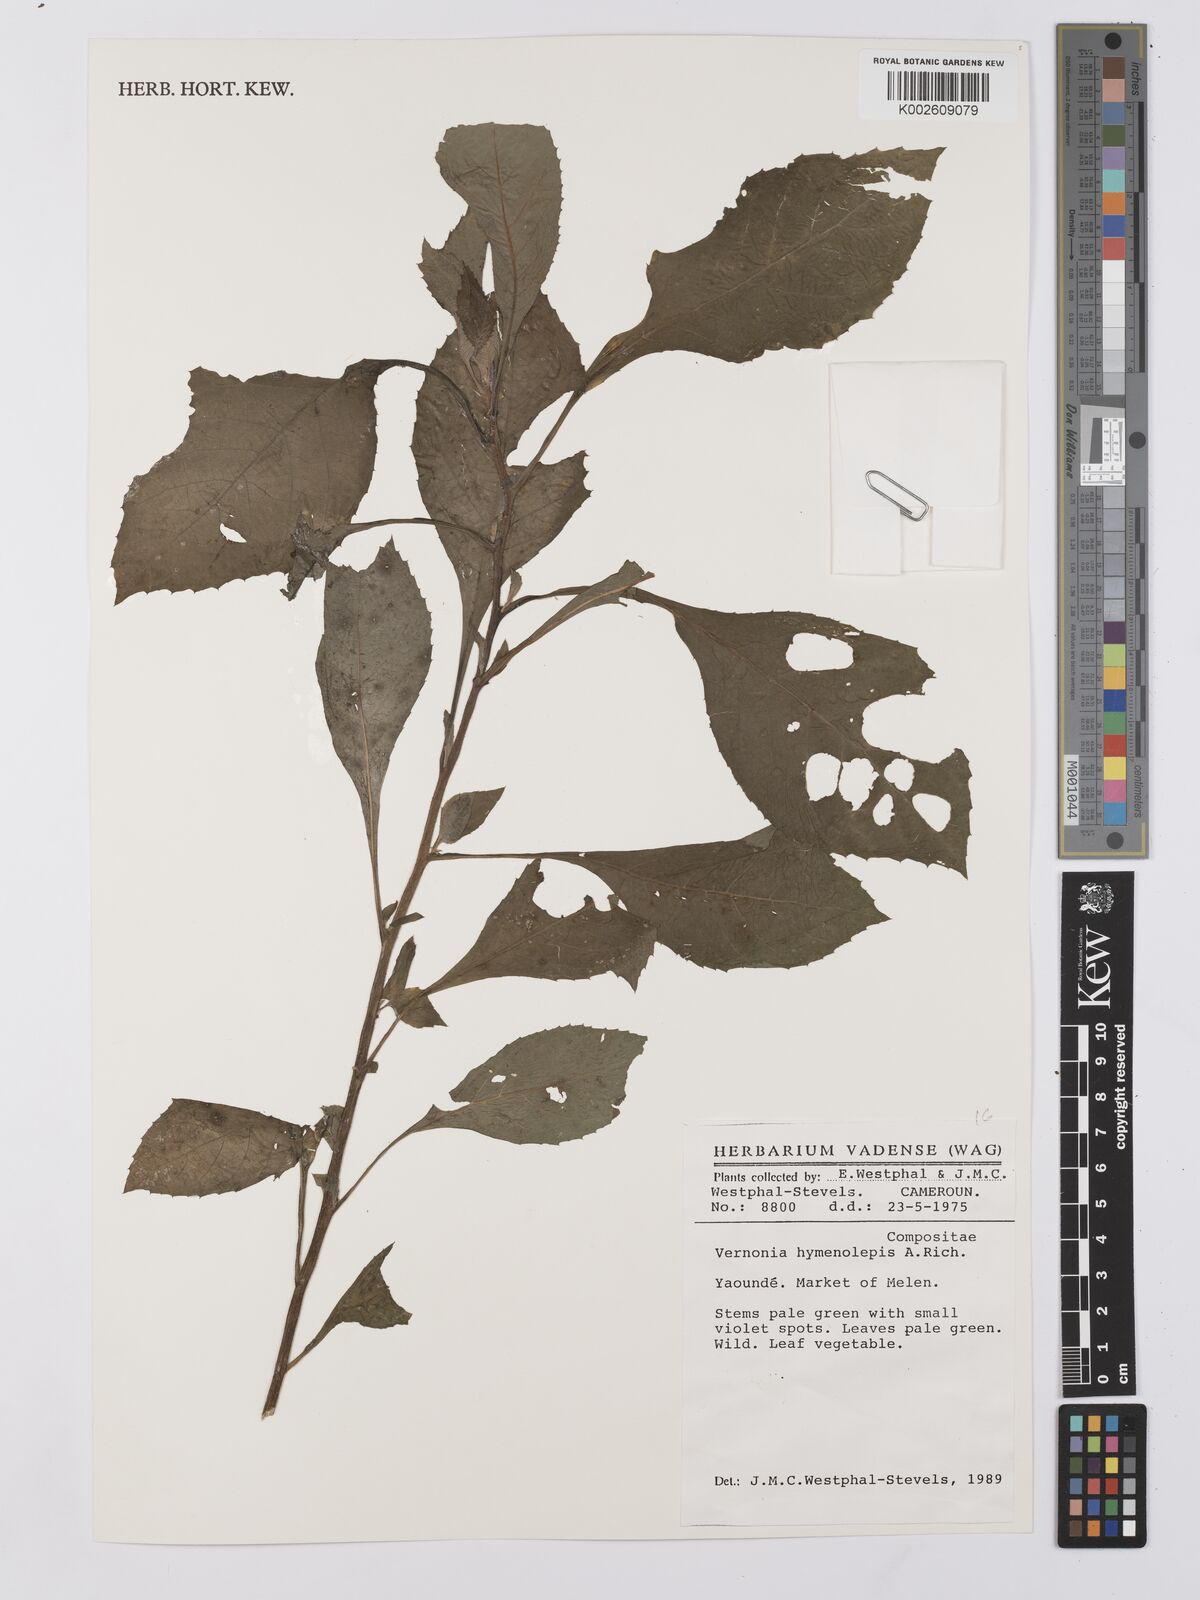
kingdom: Plantae
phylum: Tracheophyta
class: Magnoliopsida
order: Asterales
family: Asteraceae
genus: Baccharoides
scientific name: Baccharoides hymenolepis
